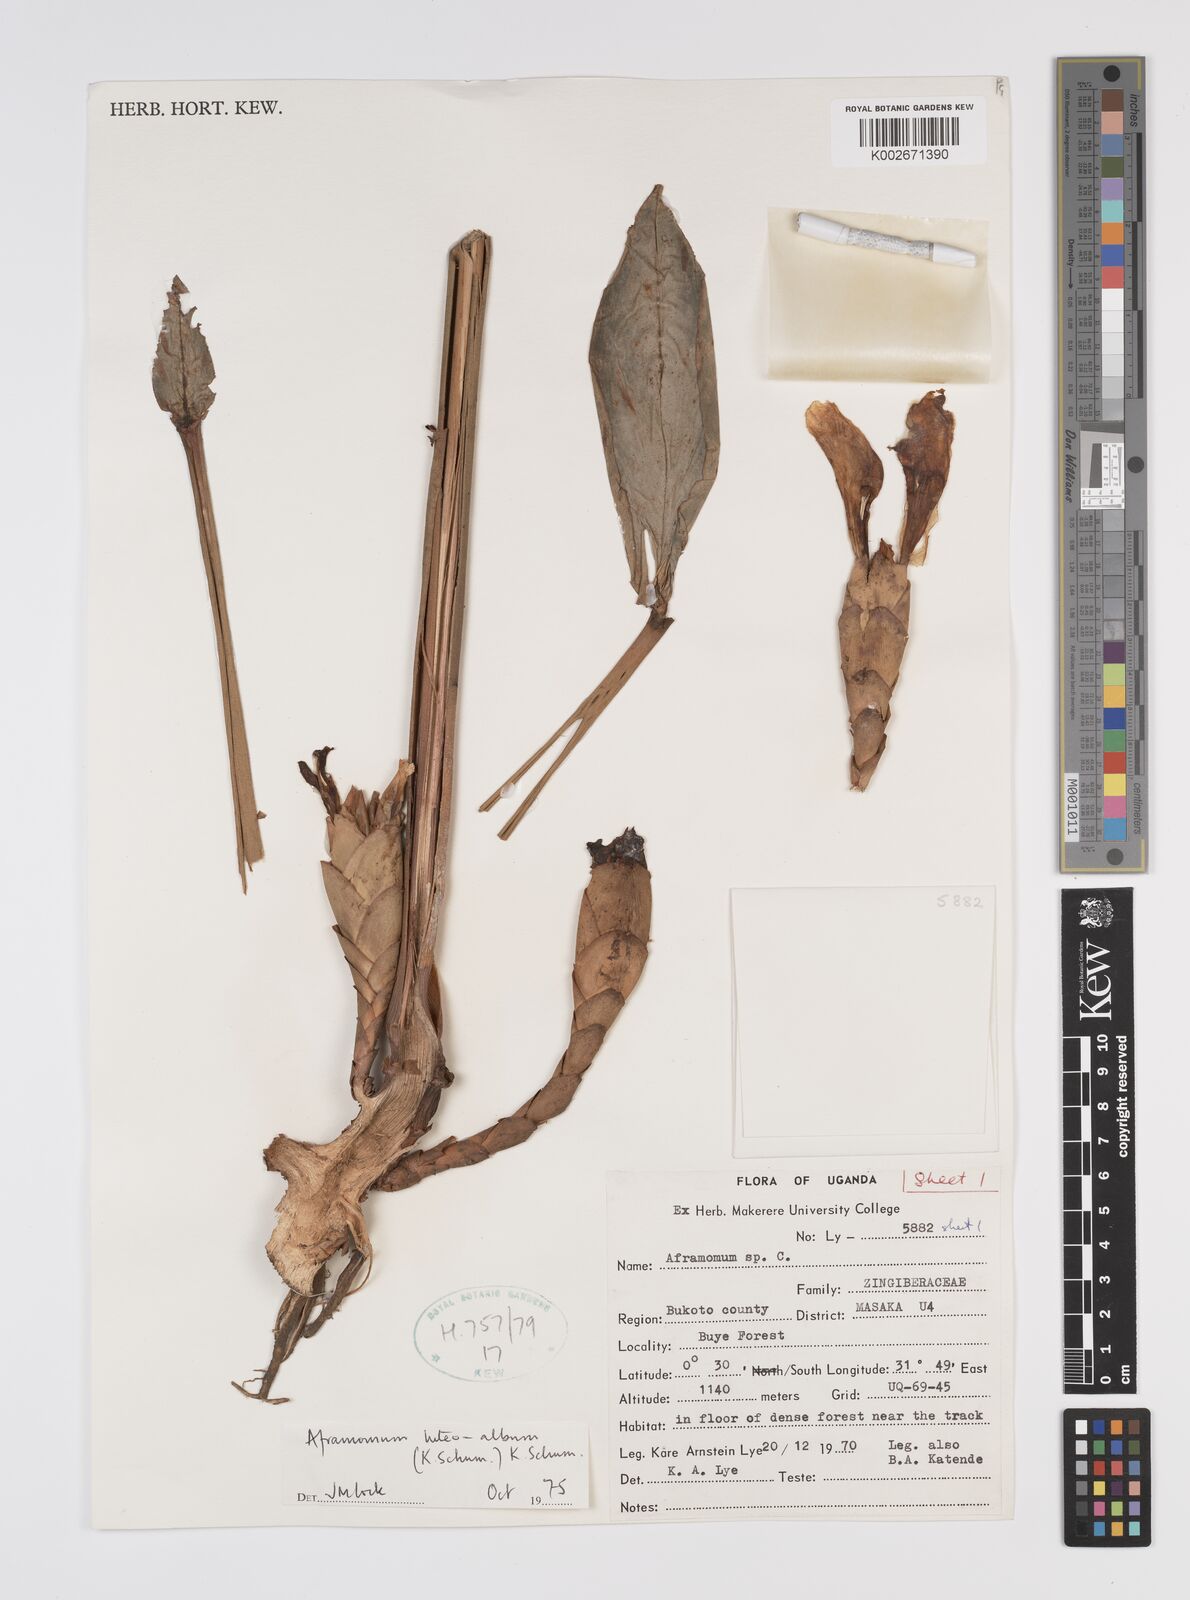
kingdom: Plantae
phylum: Tracheophyta
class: Liliopsida
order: Zingiberales
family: Zingiberaceae
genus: Aframomum
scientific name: Aframomum luteoalbum
